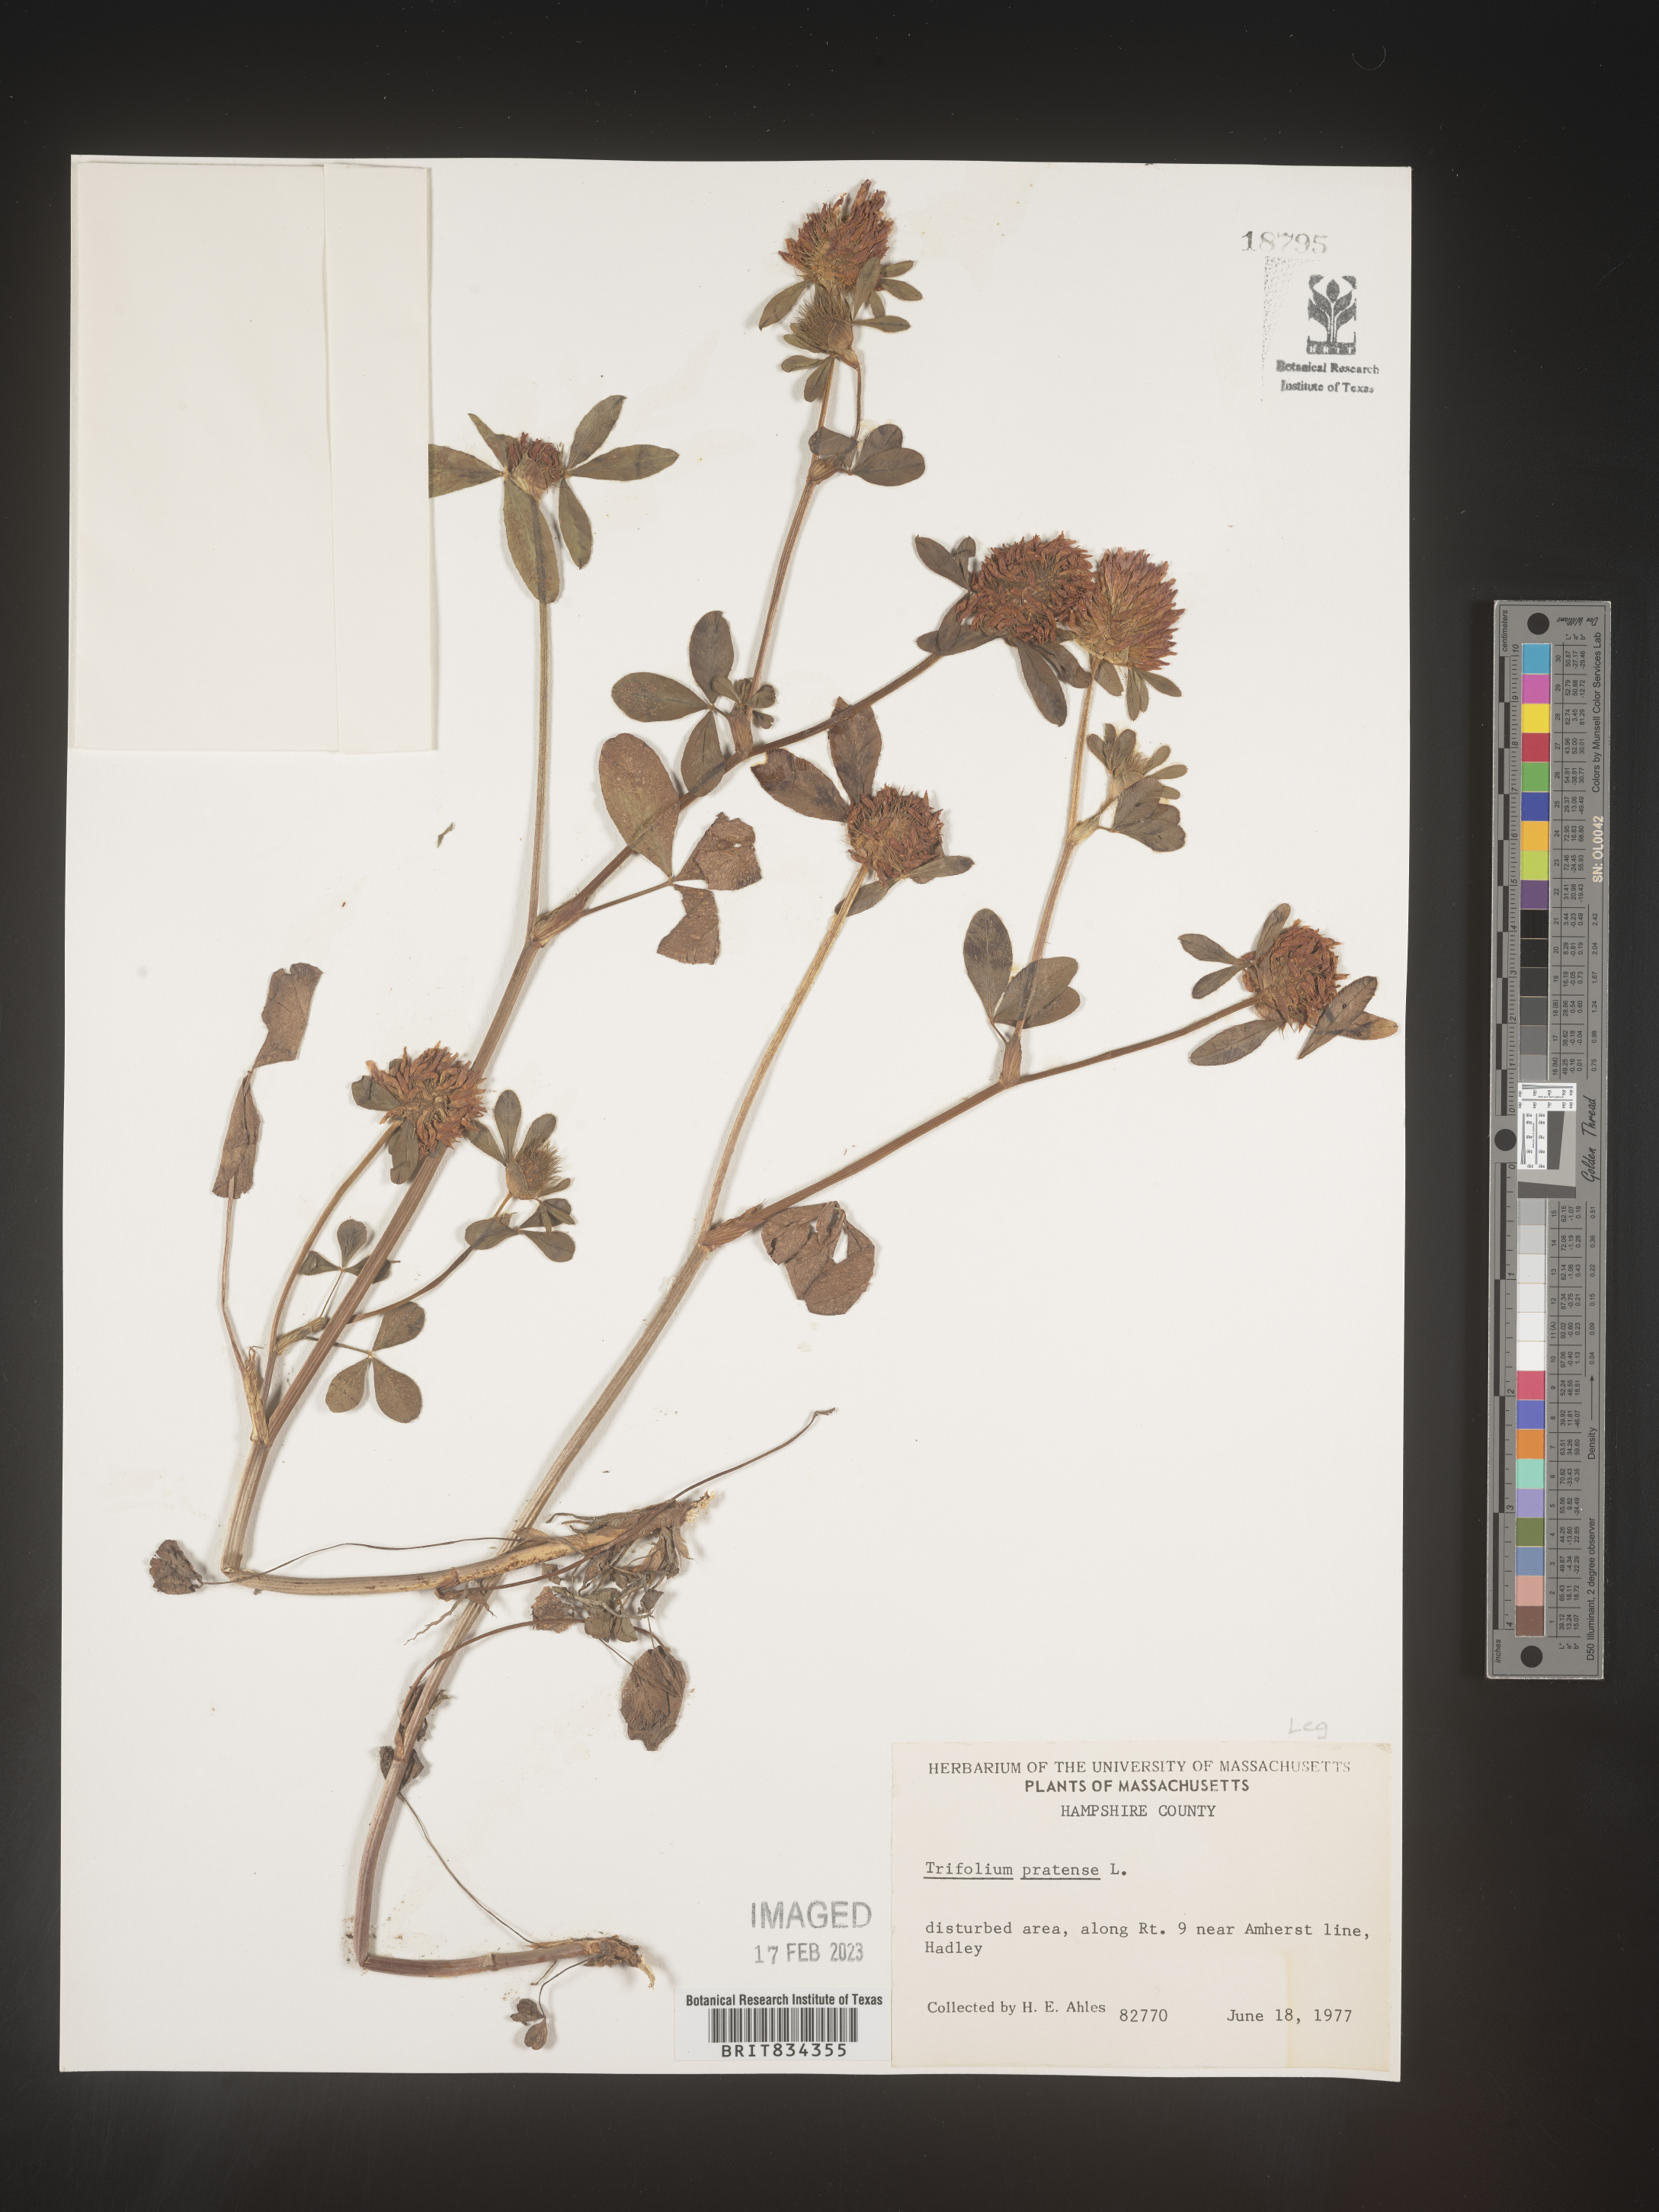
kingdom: Plantae
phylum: Tracheophyta
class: Magnoliopsida
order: Fabales
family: Fabaceae
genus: Trifolium
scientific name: Trifolium pratense
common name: Red clover
